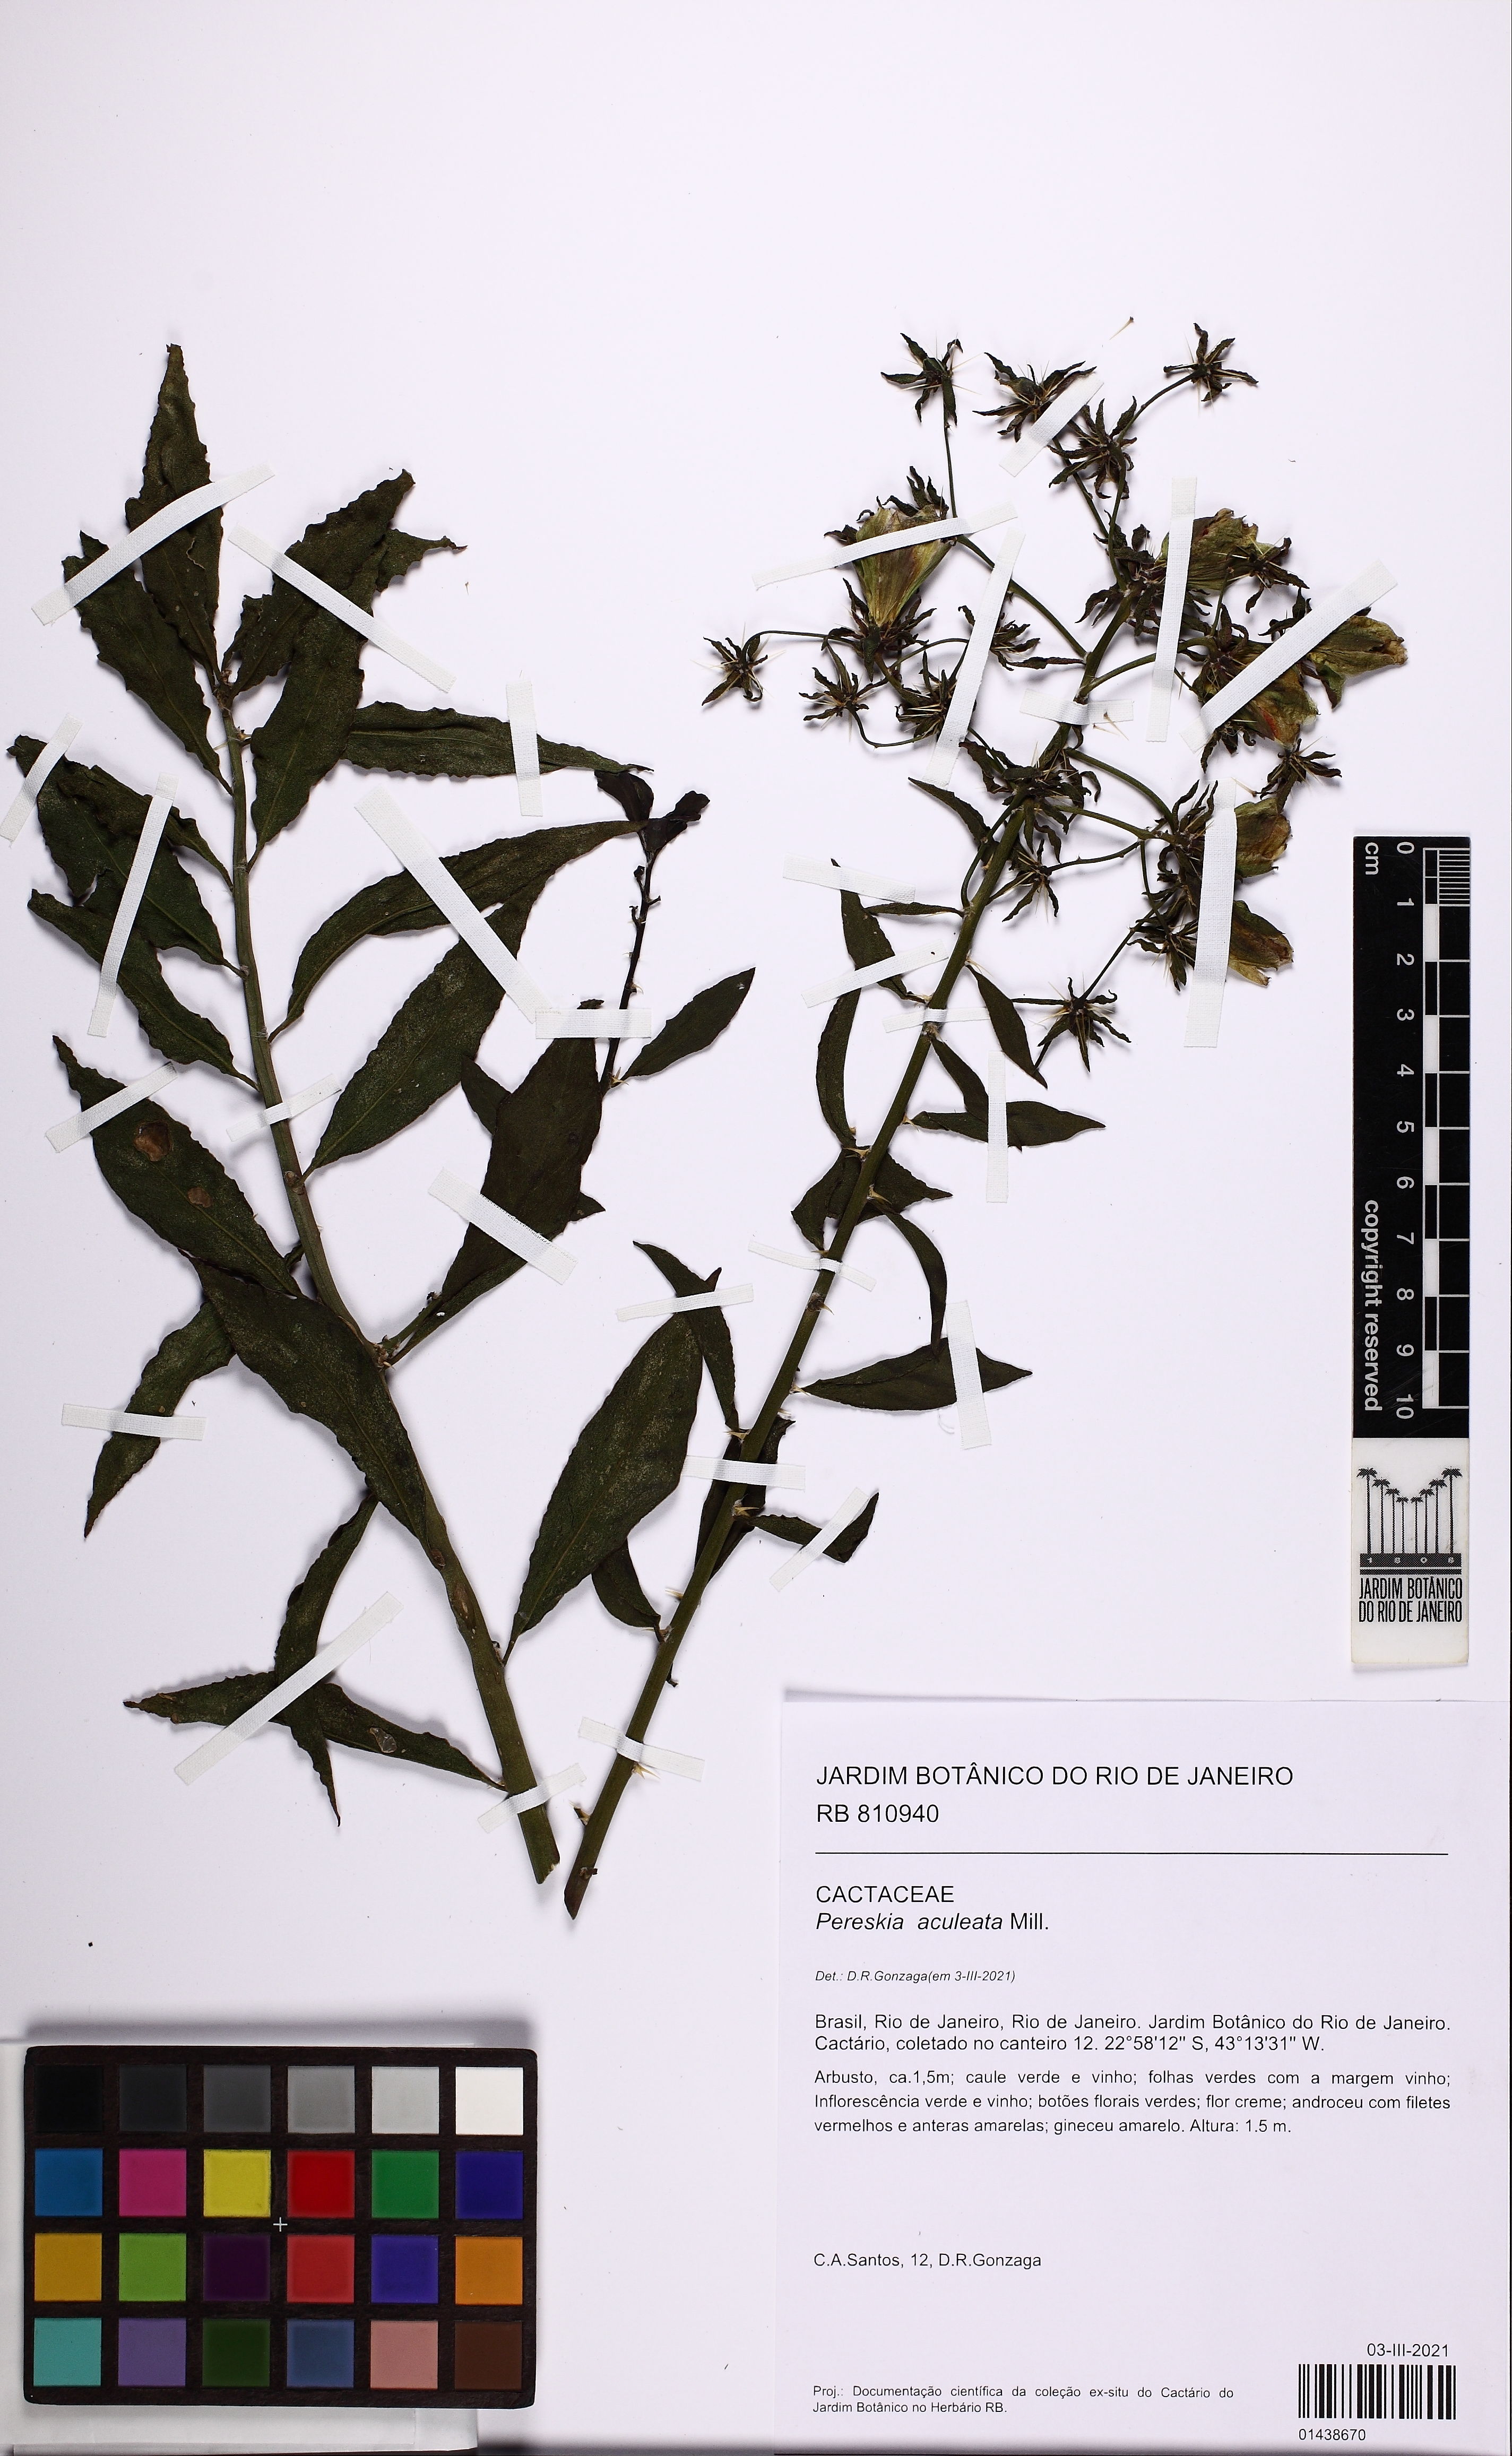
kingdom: Plantae
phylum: Tracheophyta
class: Magnoliopsida
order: Caryophyllales
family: Cactaceae
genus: Pereskia
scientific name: Pereskia aculeata
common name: Barbados gooseberry
